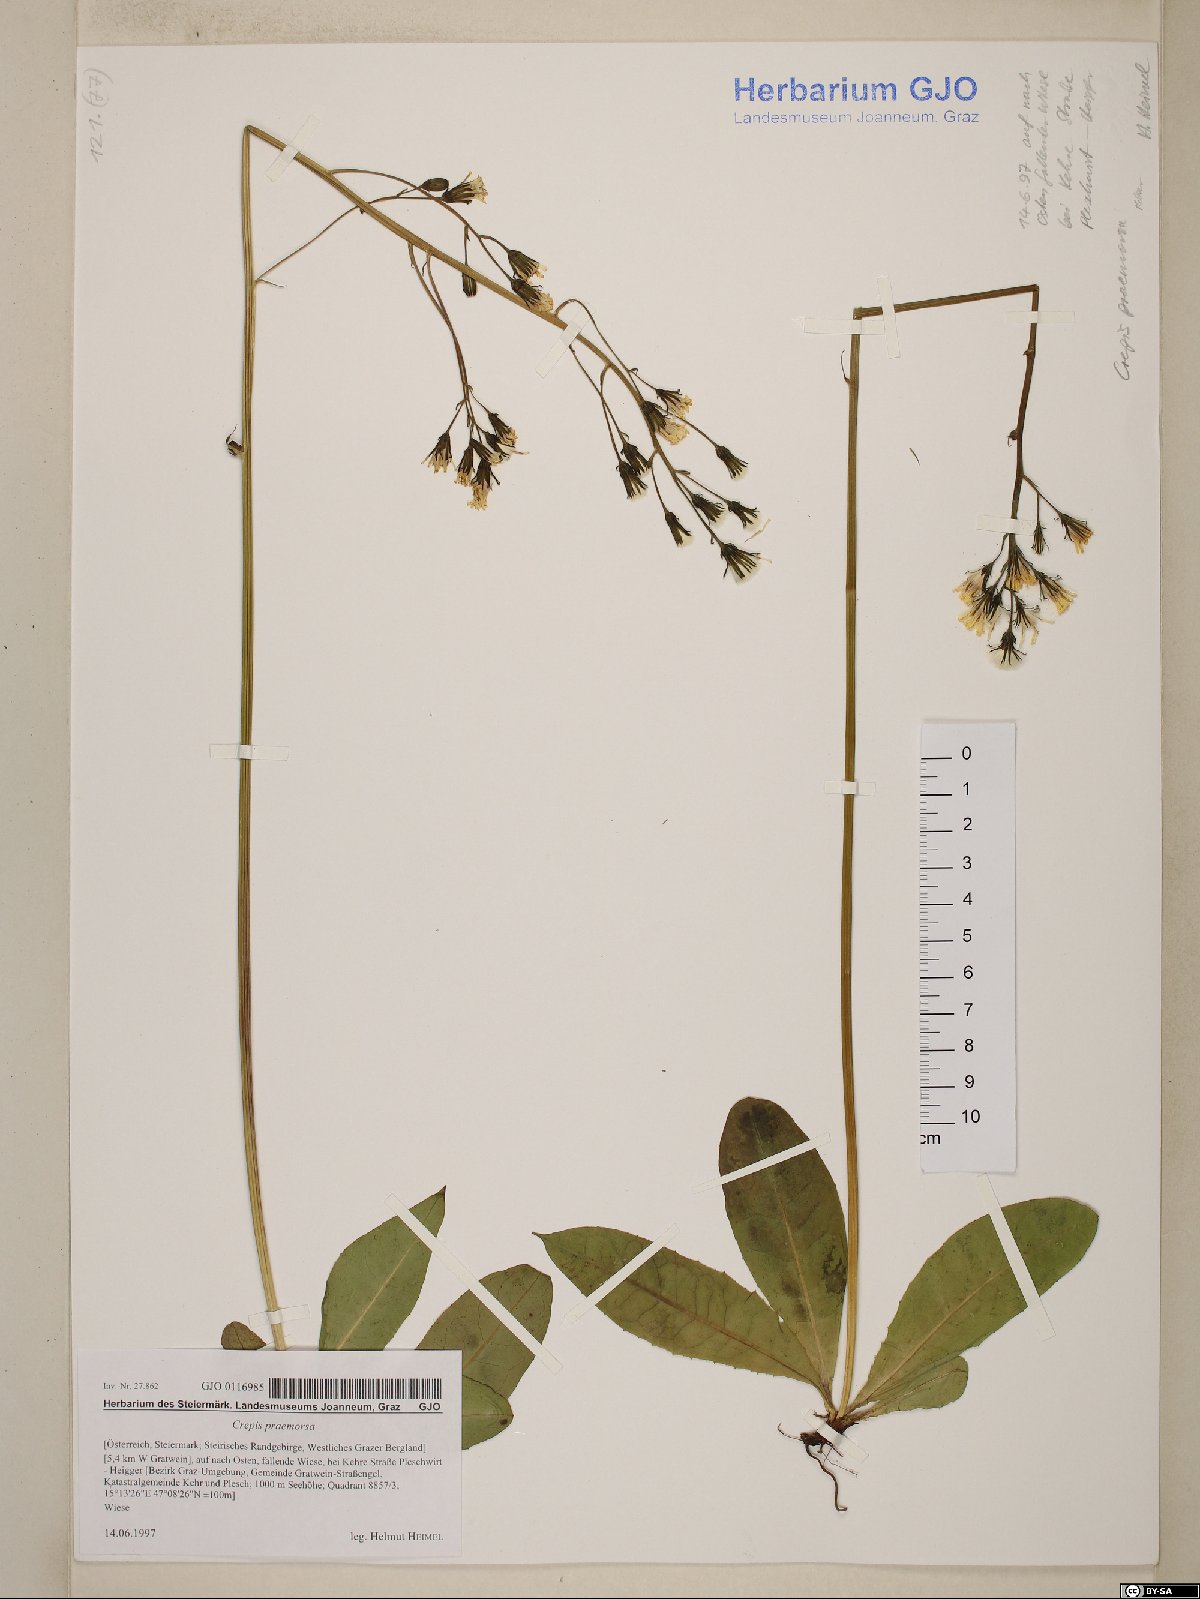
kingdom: Plantae
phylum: Tracheophyta
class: Magnoliopsida
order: Asterales
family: Asteraceae
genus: Crepis
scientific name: Crepis praemorsa
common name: Leafless hawk's-beard
